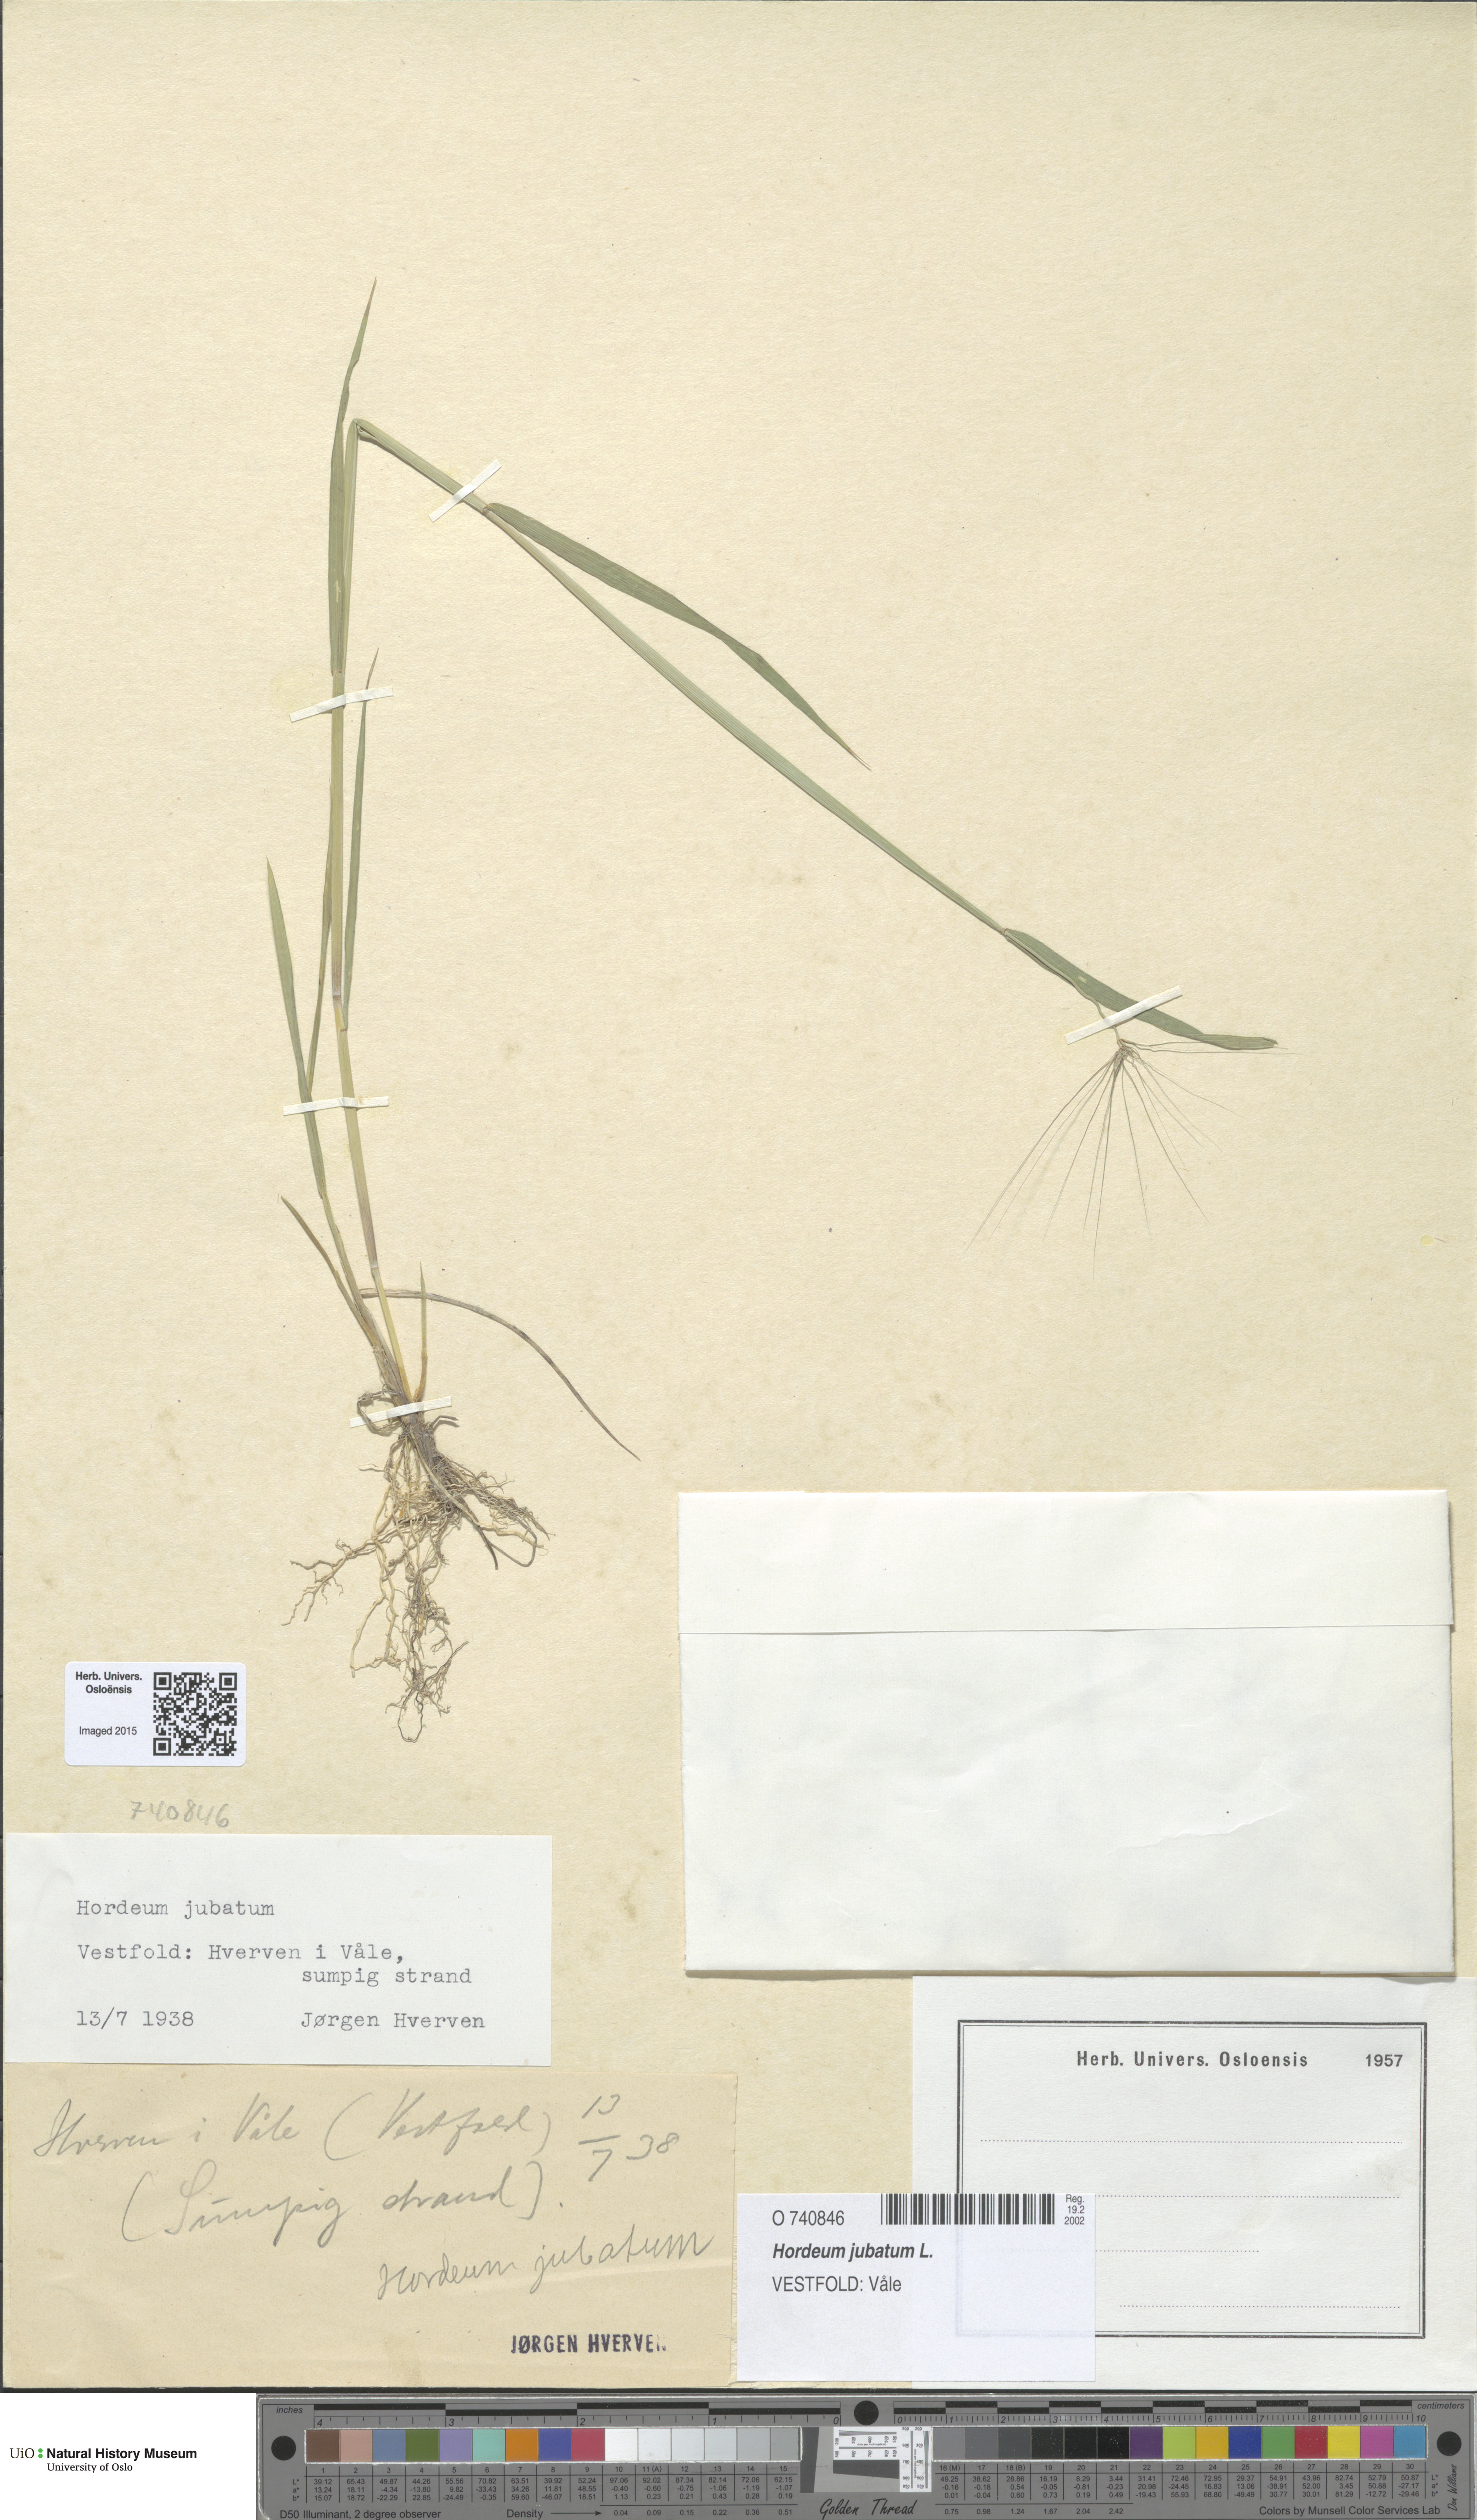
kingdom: Plantae
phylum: Tracheophyta
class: Liliopsida
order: Poales
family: Poaceae
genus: Hordeum
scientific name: Hordeum jubatum
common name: Foxtail barley
